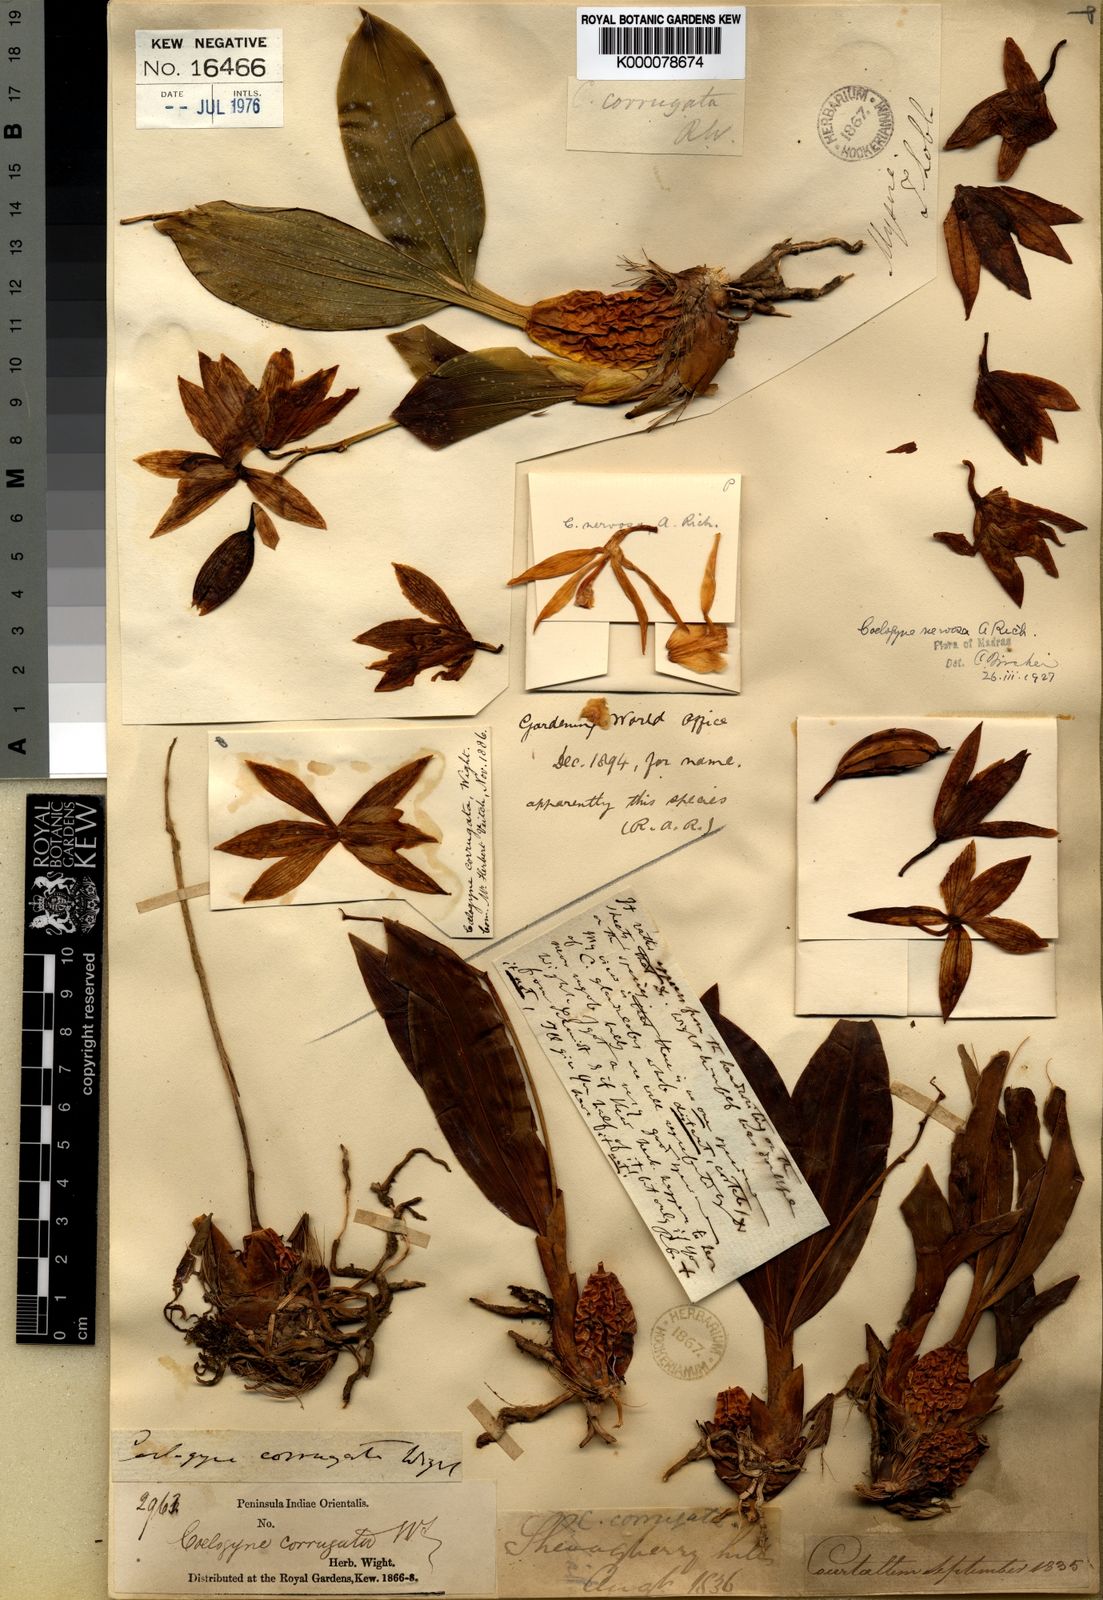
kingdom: Plantae
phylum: Tracheophyta
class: Liliopsida
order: Asparagales
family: Orchidaceae
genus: Coelogyne
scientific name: Coelogyne nervosa
